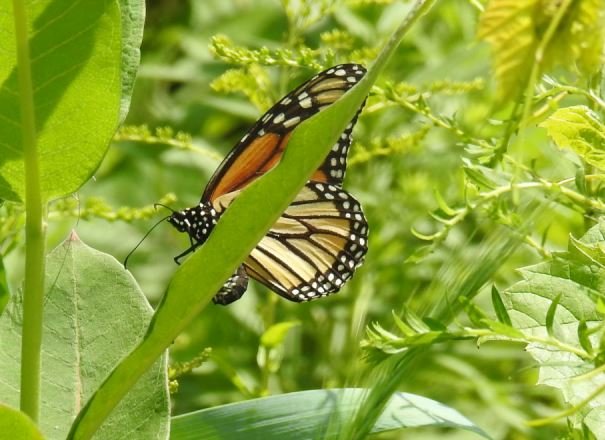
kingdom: Animalia
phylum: Arthropoda
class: Insecta
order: Lepidoptera
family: Nymphalidae
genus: Danaus
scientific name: Danaus plexippus
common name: Monarch
